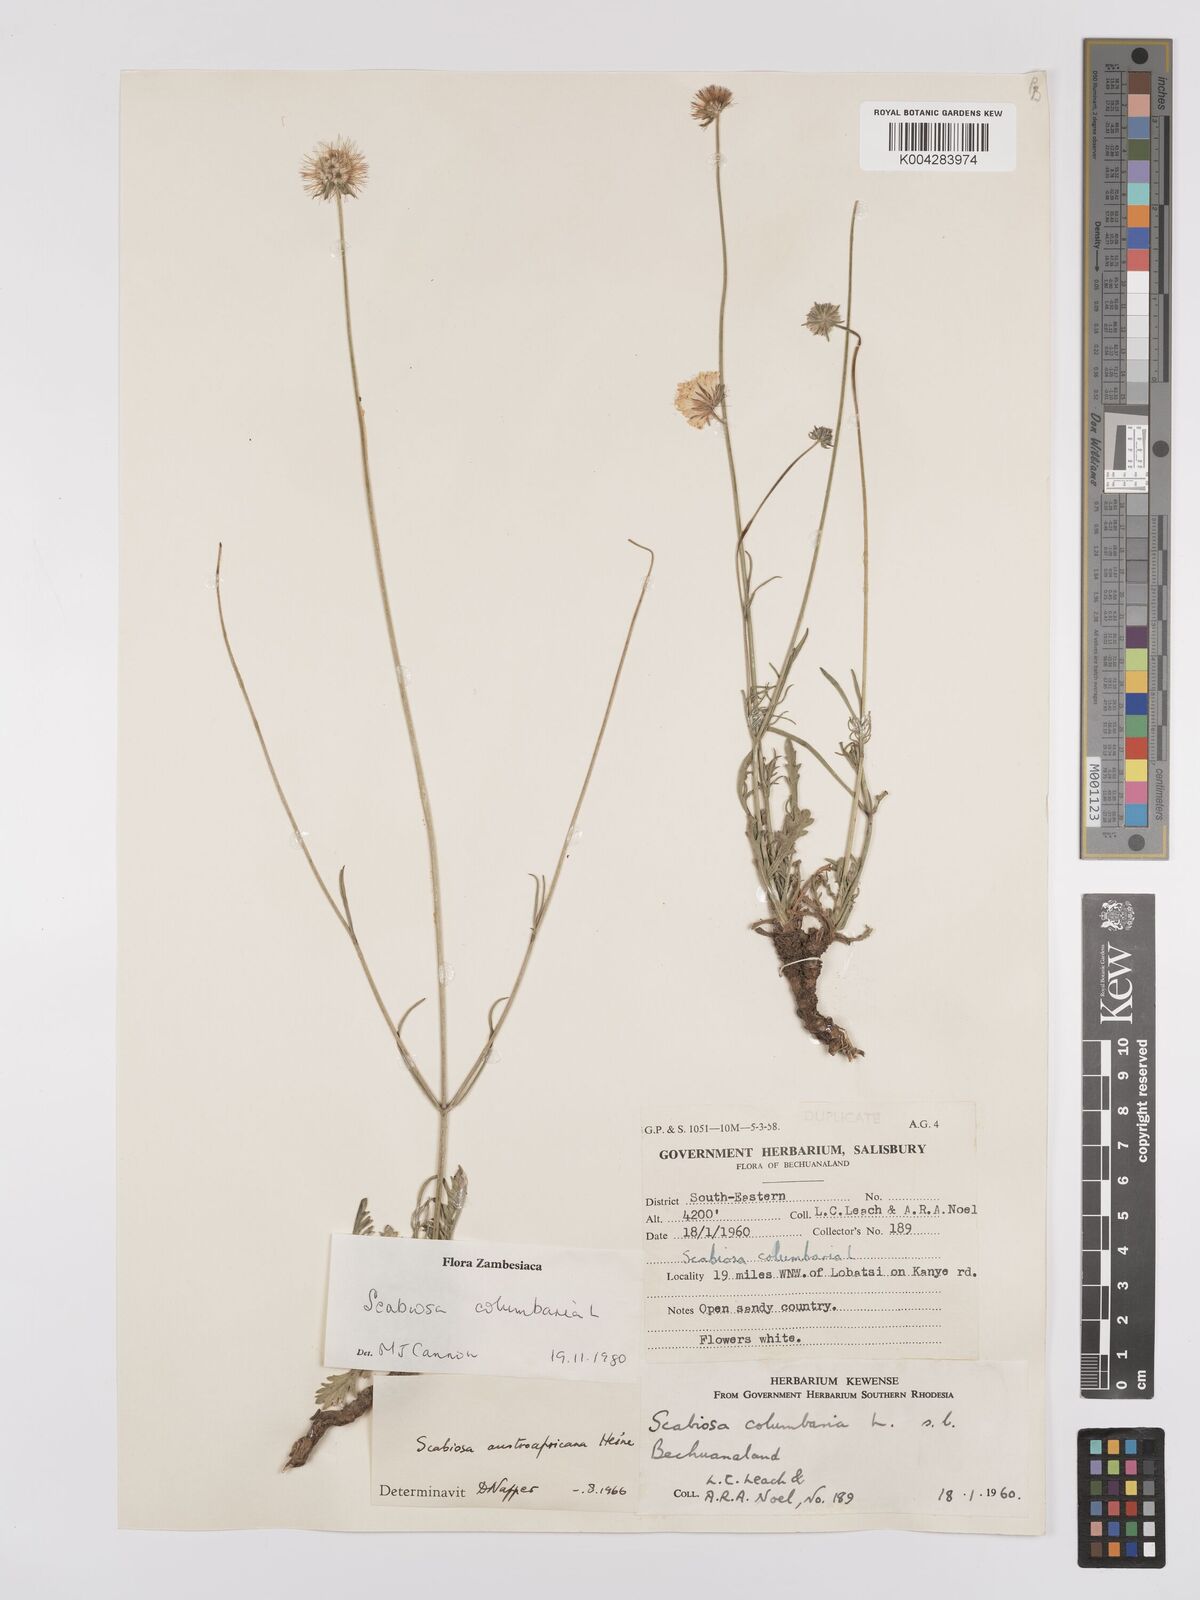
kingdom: Plantae
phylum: Tracheophyta
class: Magnoliopsida
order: Dipsacales
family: Caprifoliaceae
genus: Scabiosa
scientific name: Scabiosa austroafricana
